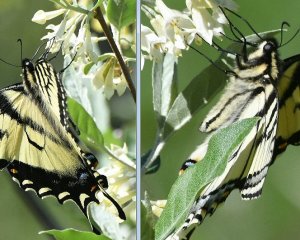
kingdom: Animalia
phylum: Arthropoda
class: Insecta
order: Lepidoptera
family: Papilionidae
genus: Pterourus
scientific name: Pterourus canadensis
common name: Canadian Tiger Swallowtail
